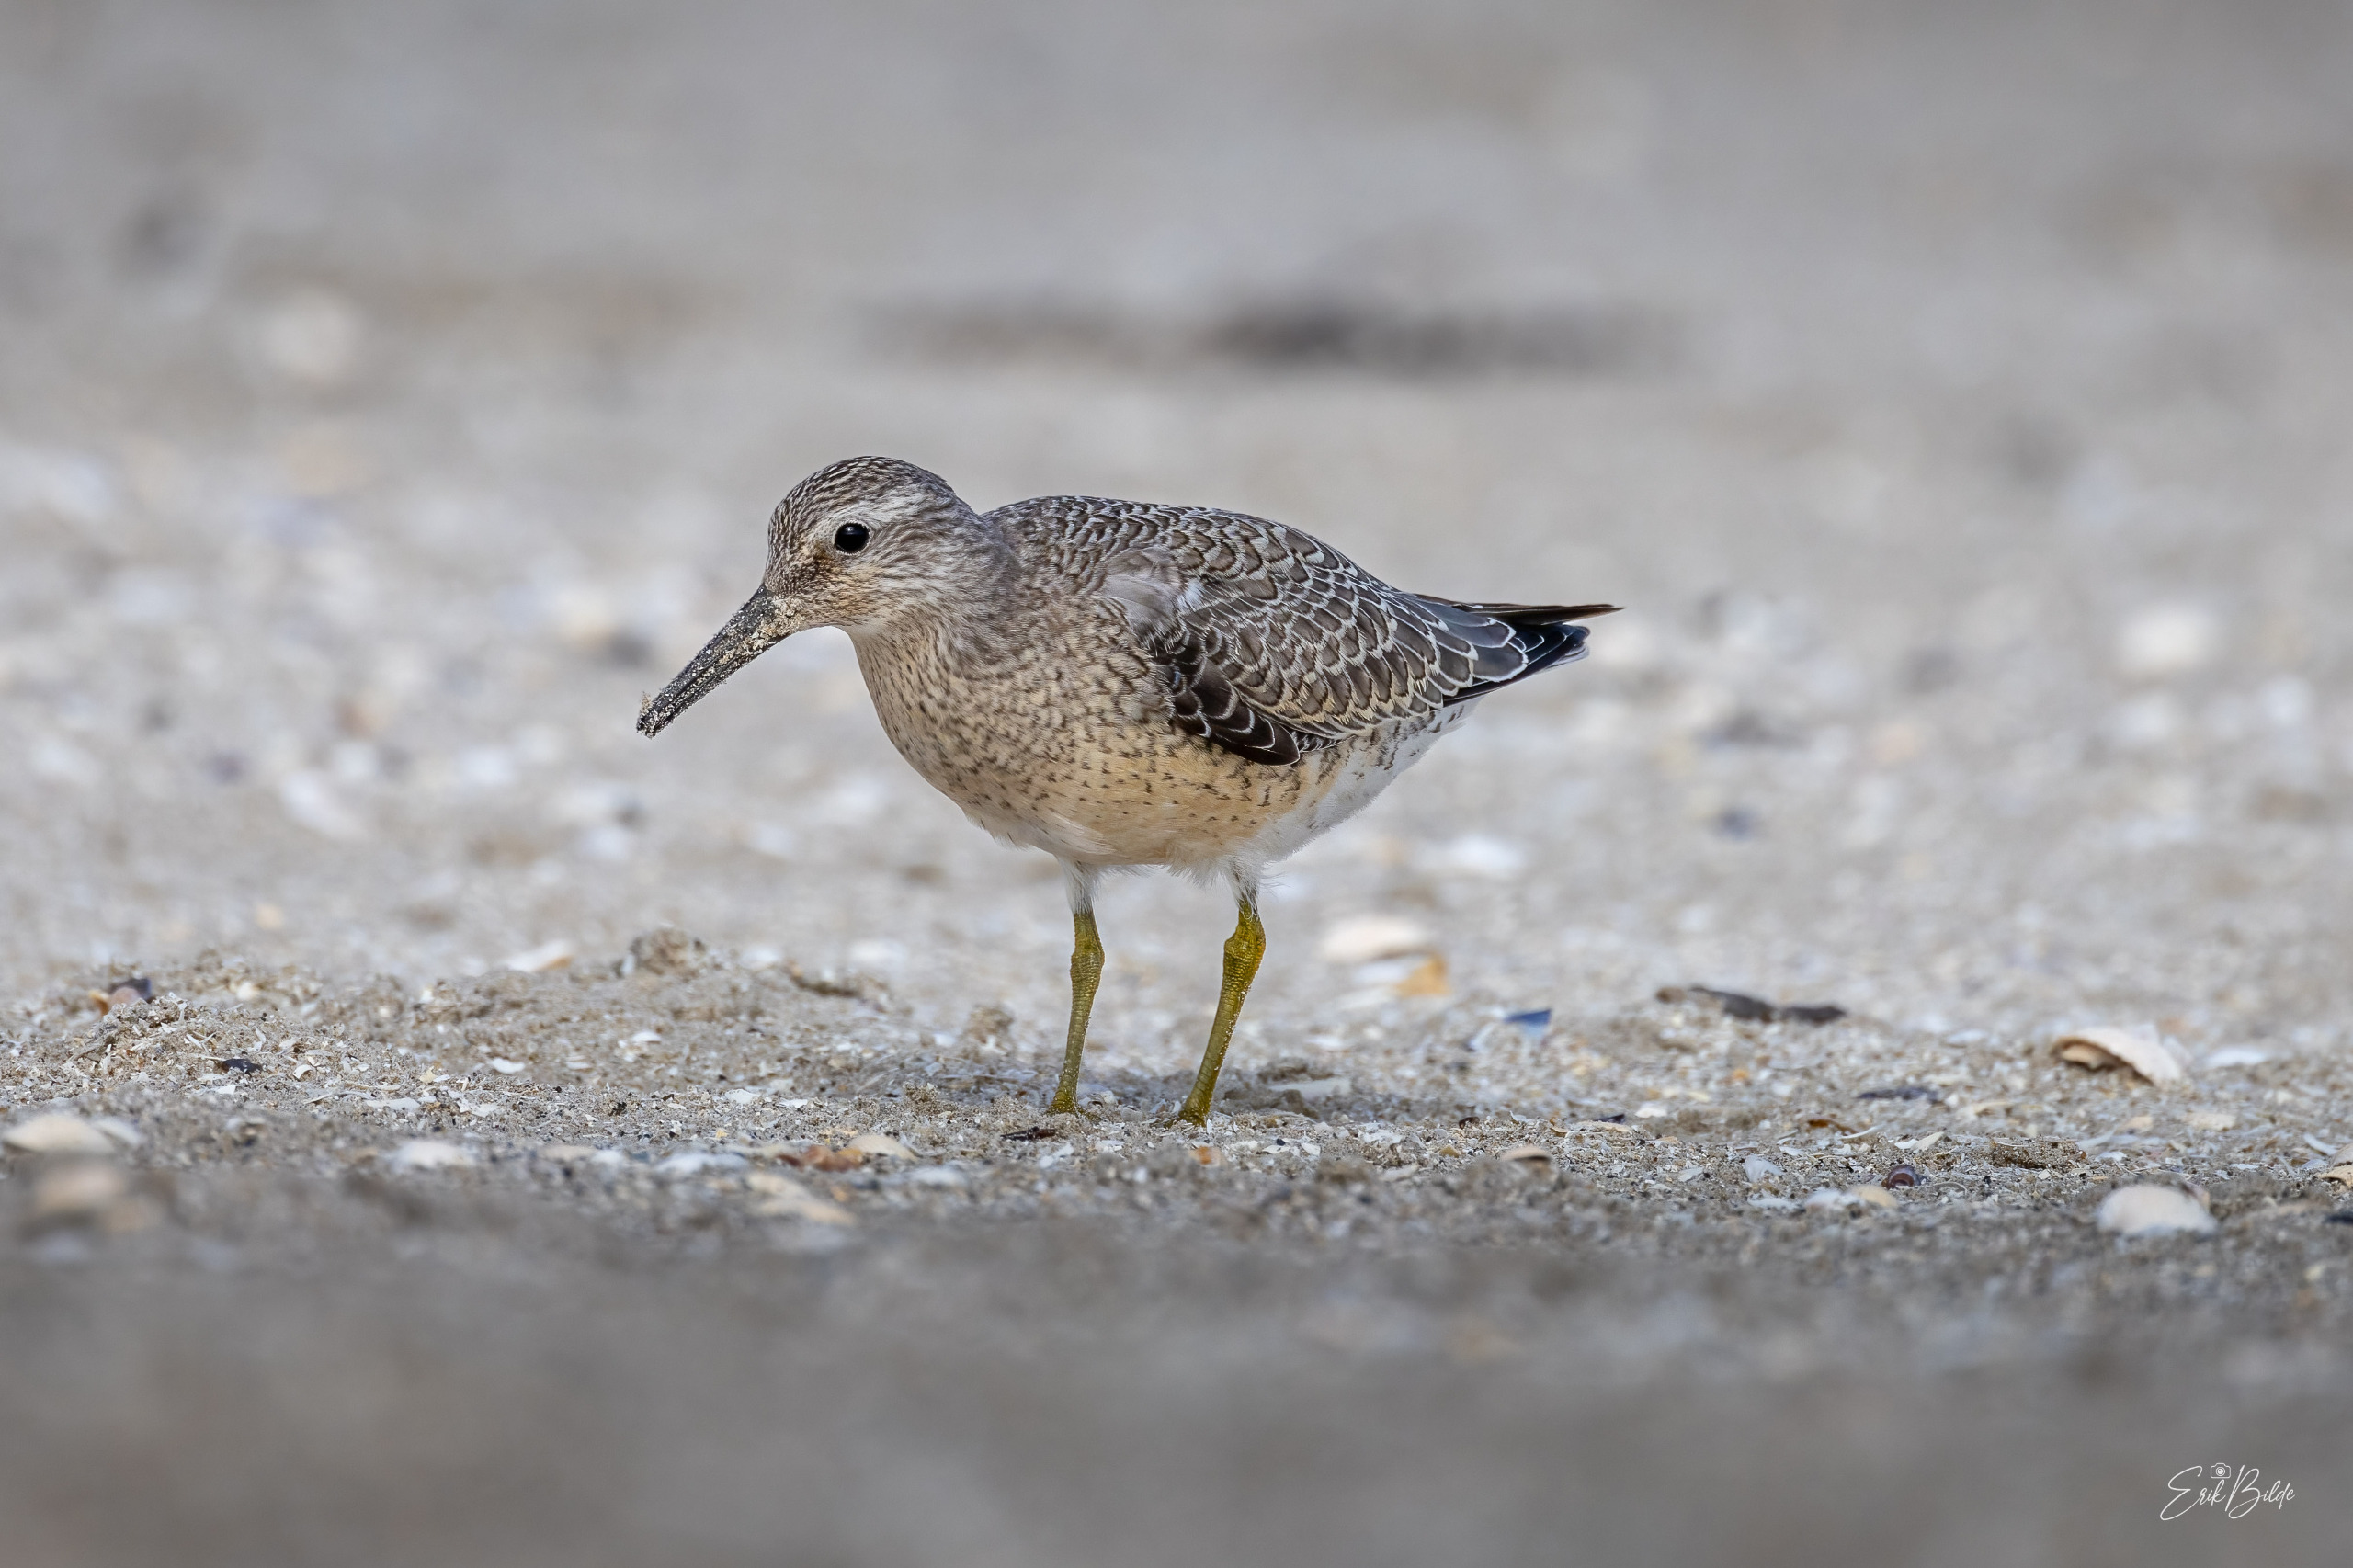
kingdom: Animalia
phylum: Chordata
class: Aves
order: Charadriiformes
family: Scolopacidae
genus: Calidris
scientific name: Calidris canutus
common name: Islandsk ryle
